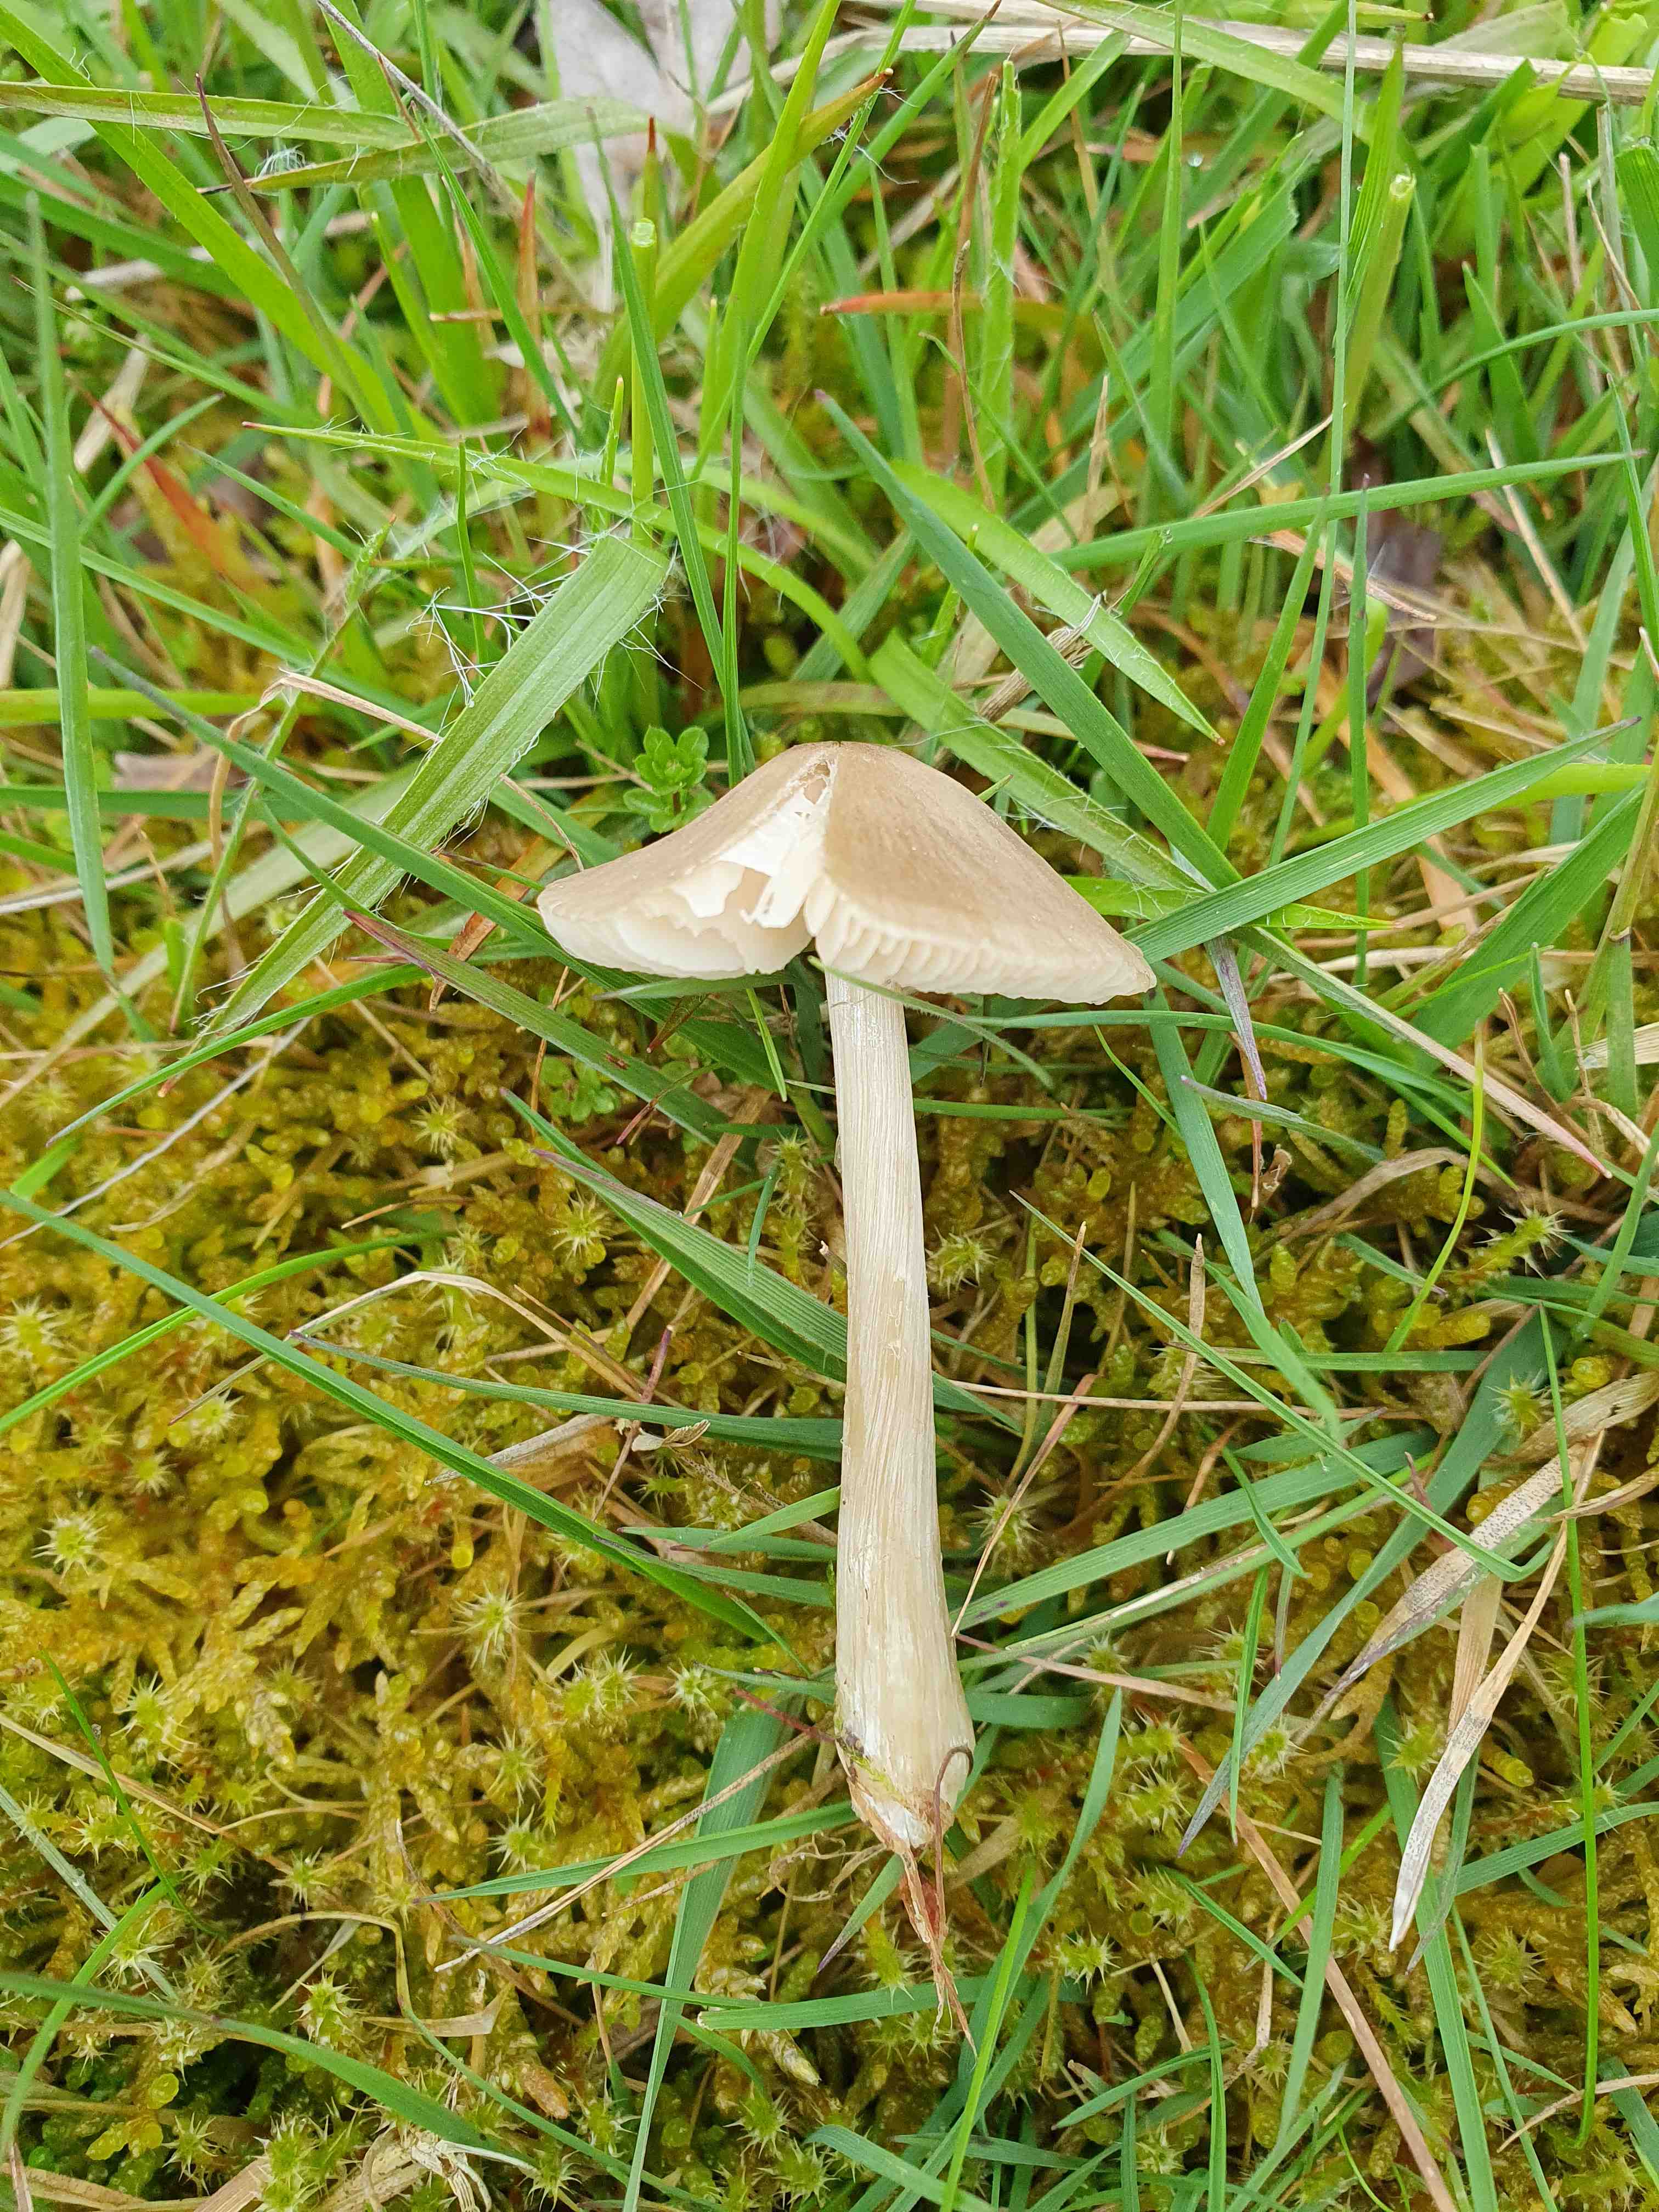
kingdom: Fungi
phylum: Basidiomycota
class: Agaricomycetes
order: Agaricales
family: Entolomataceae
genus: Entoloma
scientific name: Entoloma
